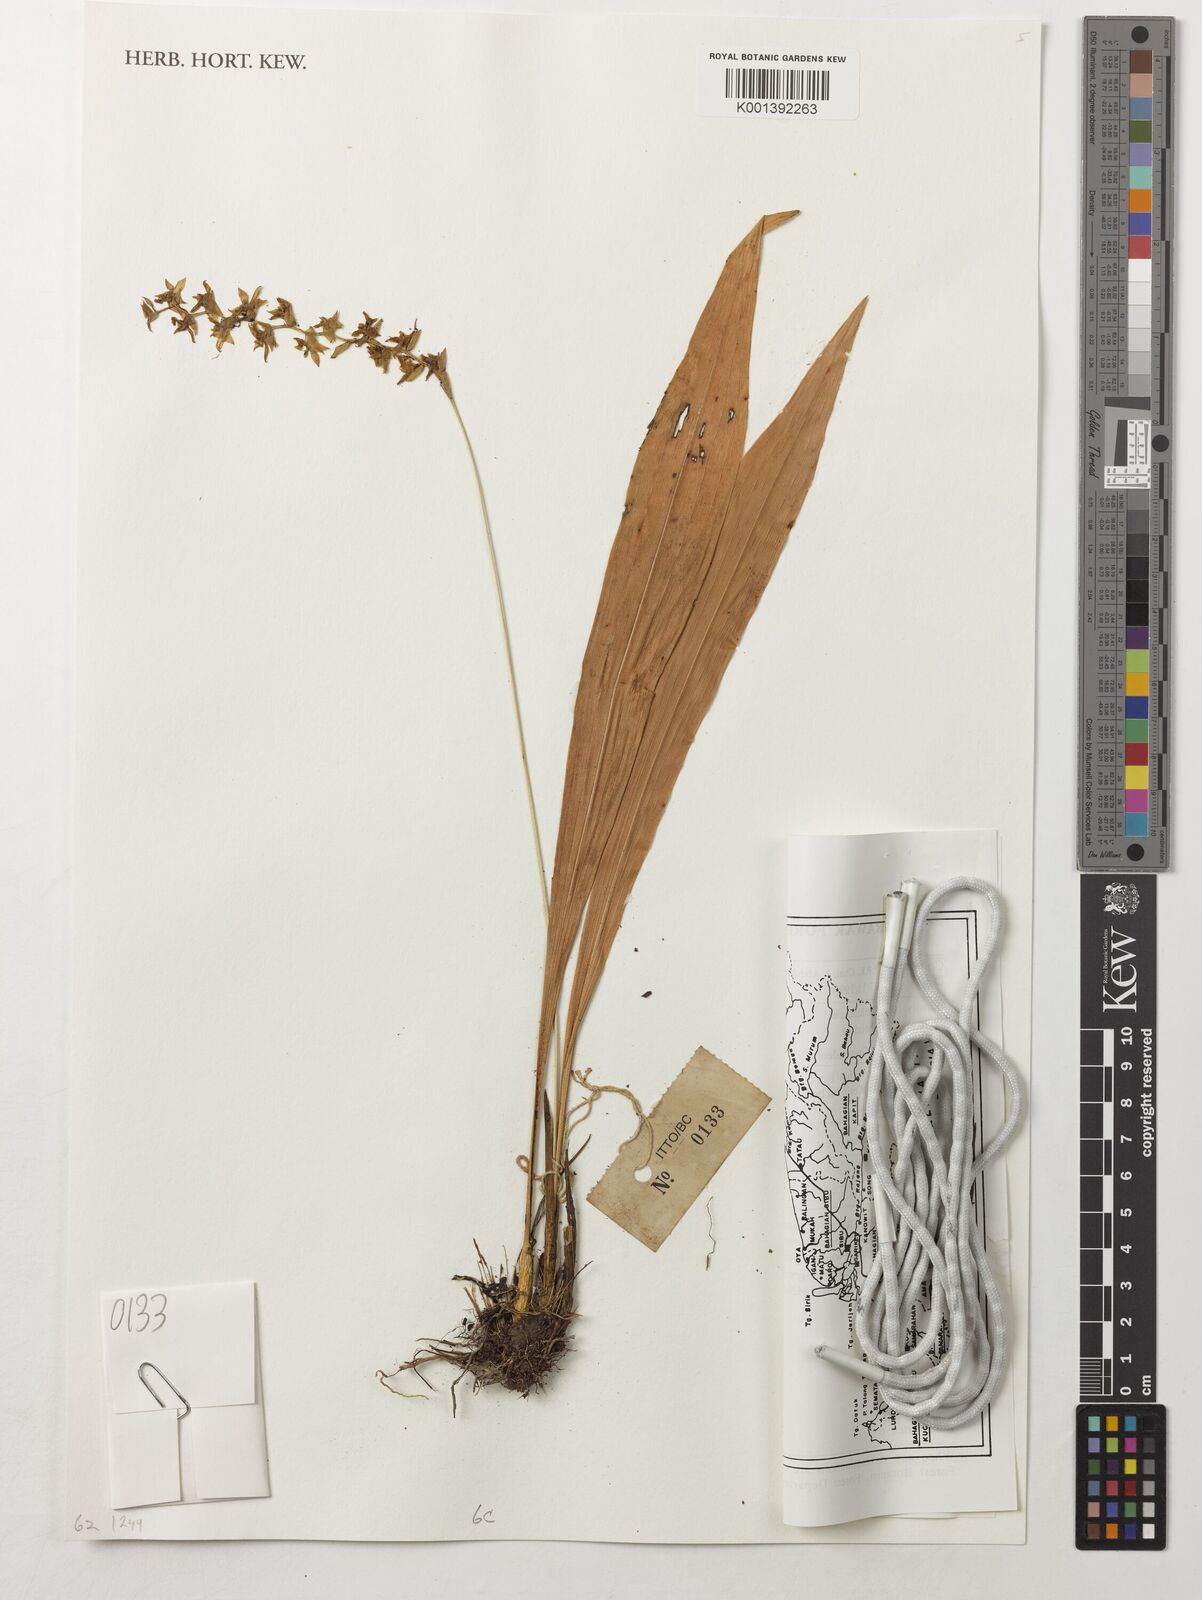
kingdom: Plantae
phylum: Tracheophyta
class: Liliopsida
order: Asparagales
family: Orchidaceae
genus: Pholidota
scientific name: Pholidota
